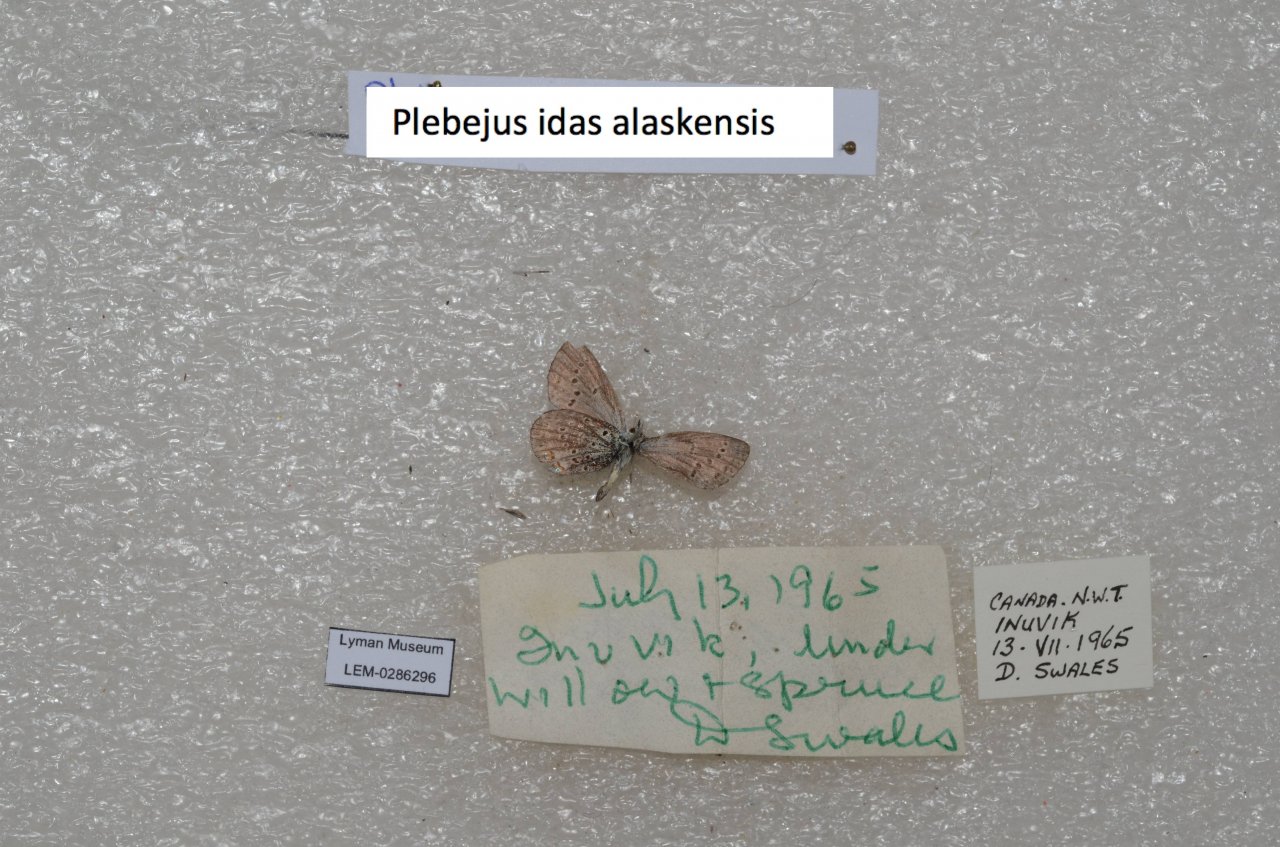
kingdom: Animalia
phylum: Arthropoda
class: Insecta
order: Lepidoptera
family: Lycaenidae
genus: Lycaeides
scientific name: Lycaeides idas
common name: Northern Blue
